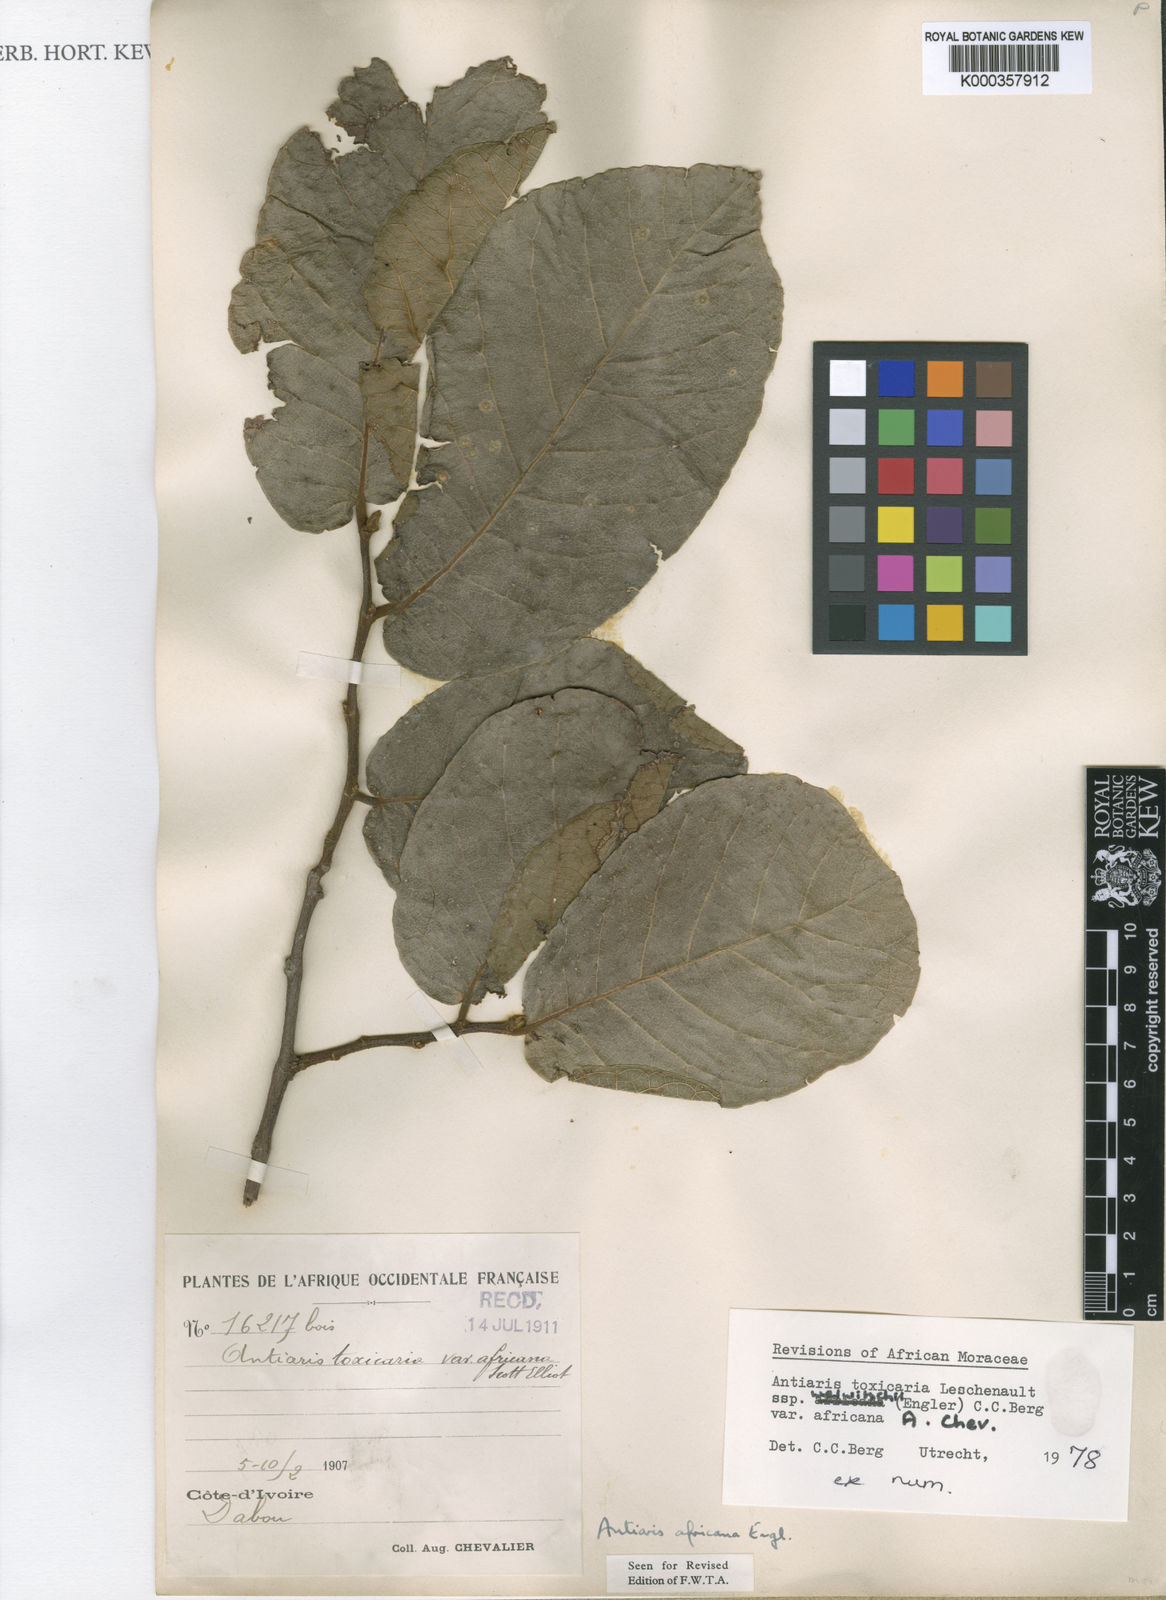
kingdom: Plantae
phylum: Tracheophyta
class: Magnoliopsida
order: Rosales
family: Moraceae
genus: Antiaris
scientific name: Antiaris toxicaria
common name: Sackingtree
